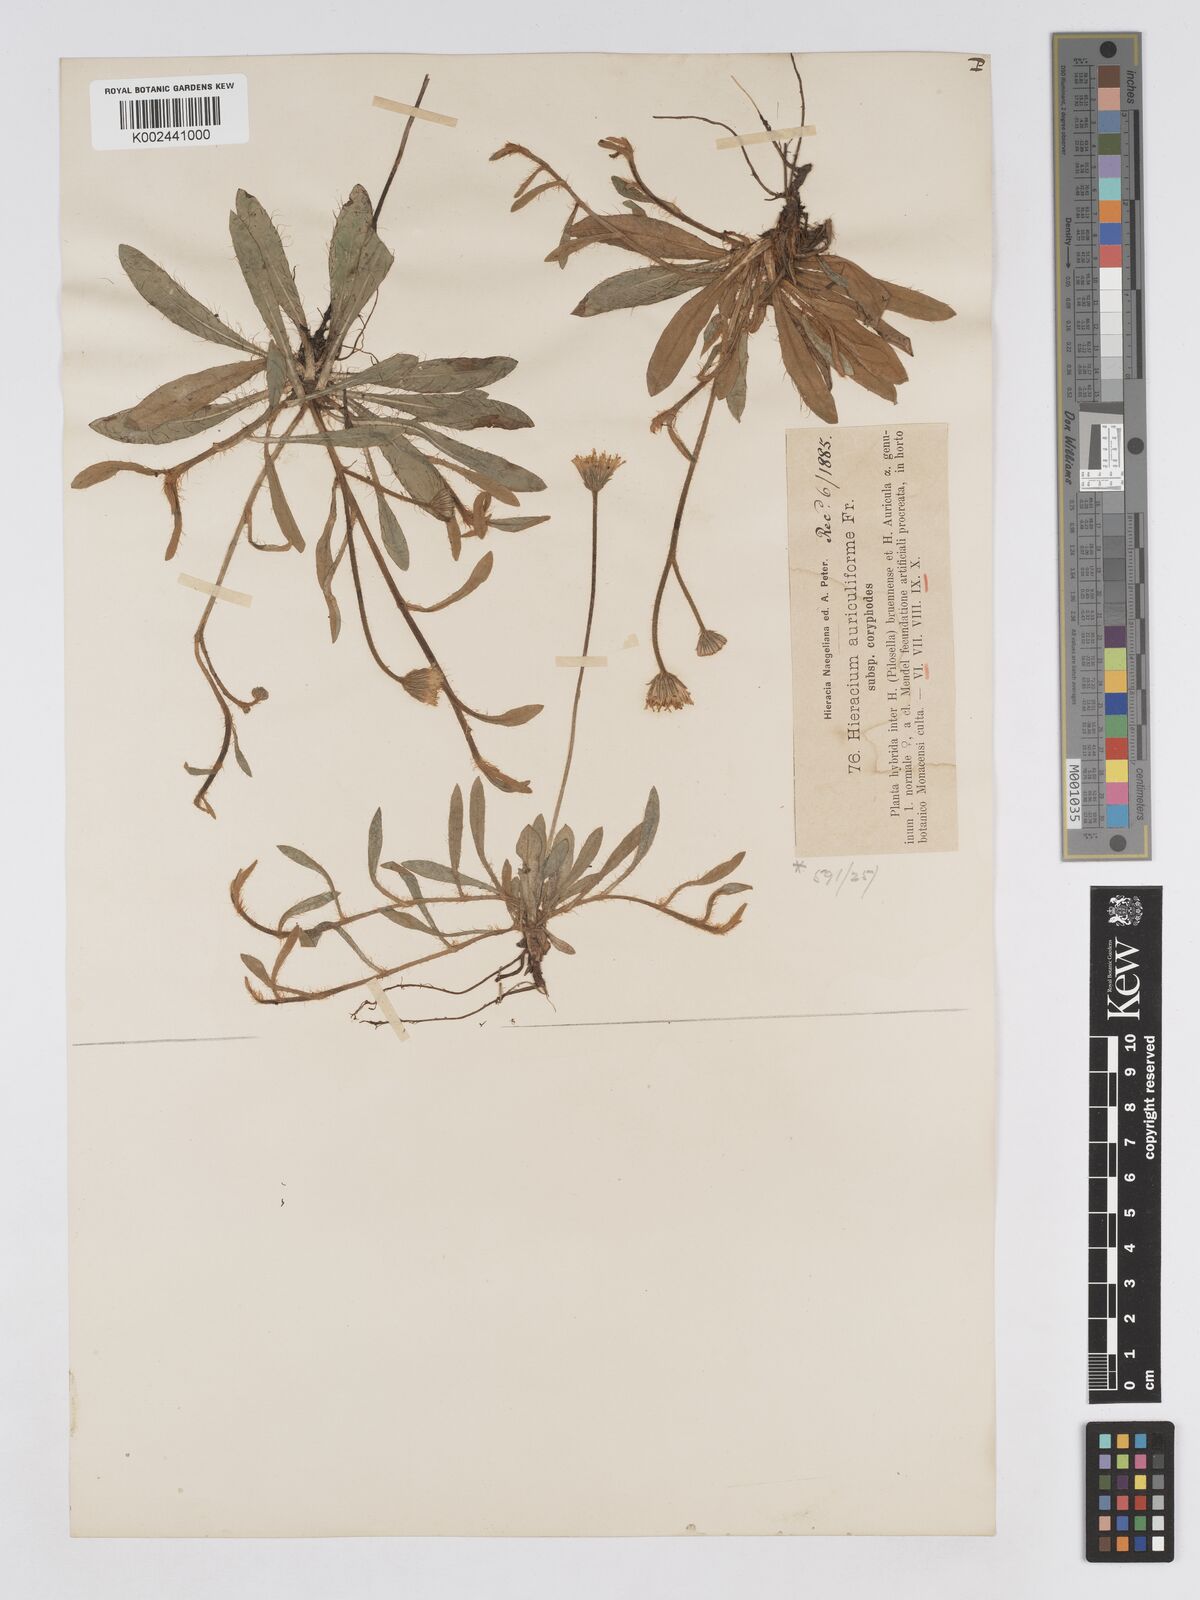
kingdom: Plantae
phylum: Tracheophyta
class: Magnoliopsida
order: Asterales
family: Asteraceae
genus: Pilosella
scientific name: Pilosella schultesii
